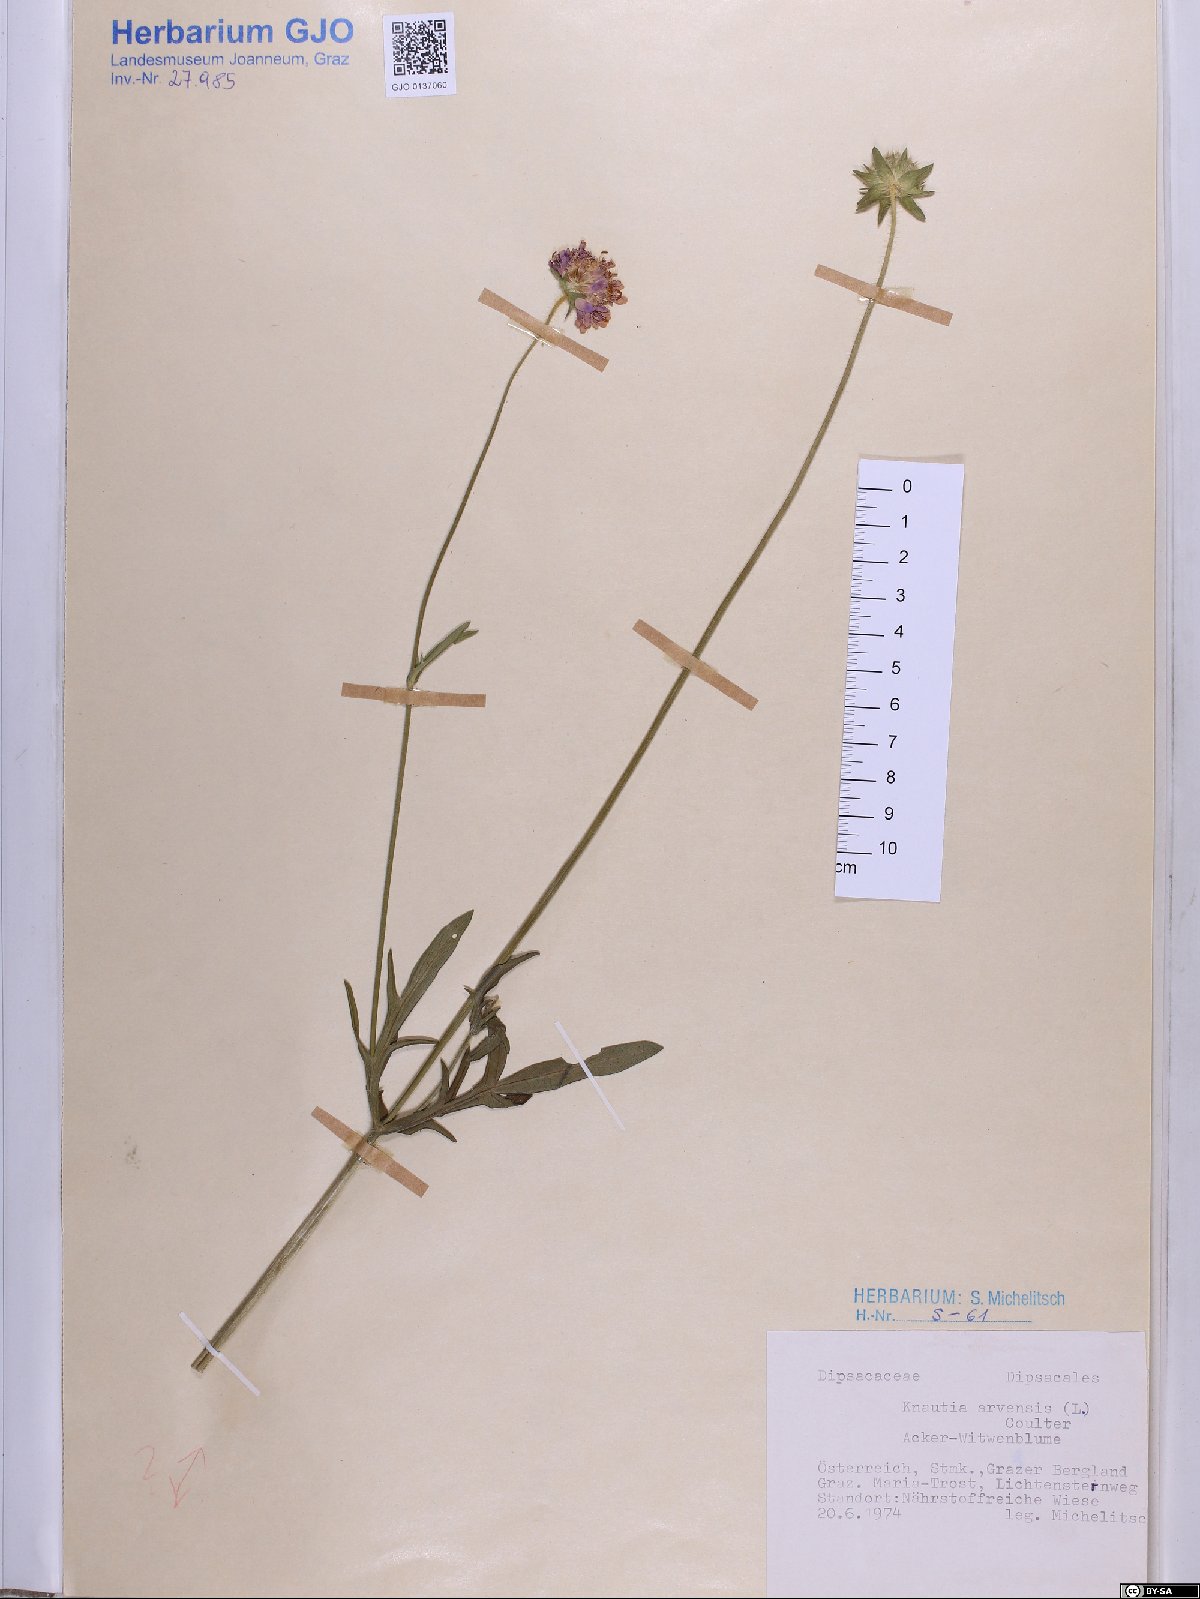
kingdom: Plantae
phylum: Tracheophyta
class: Magnoliopsida
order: Dipsacales
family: Caprifoliaceae
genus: Knautia
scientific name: Knautia arvensis
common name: Field scabiosa
